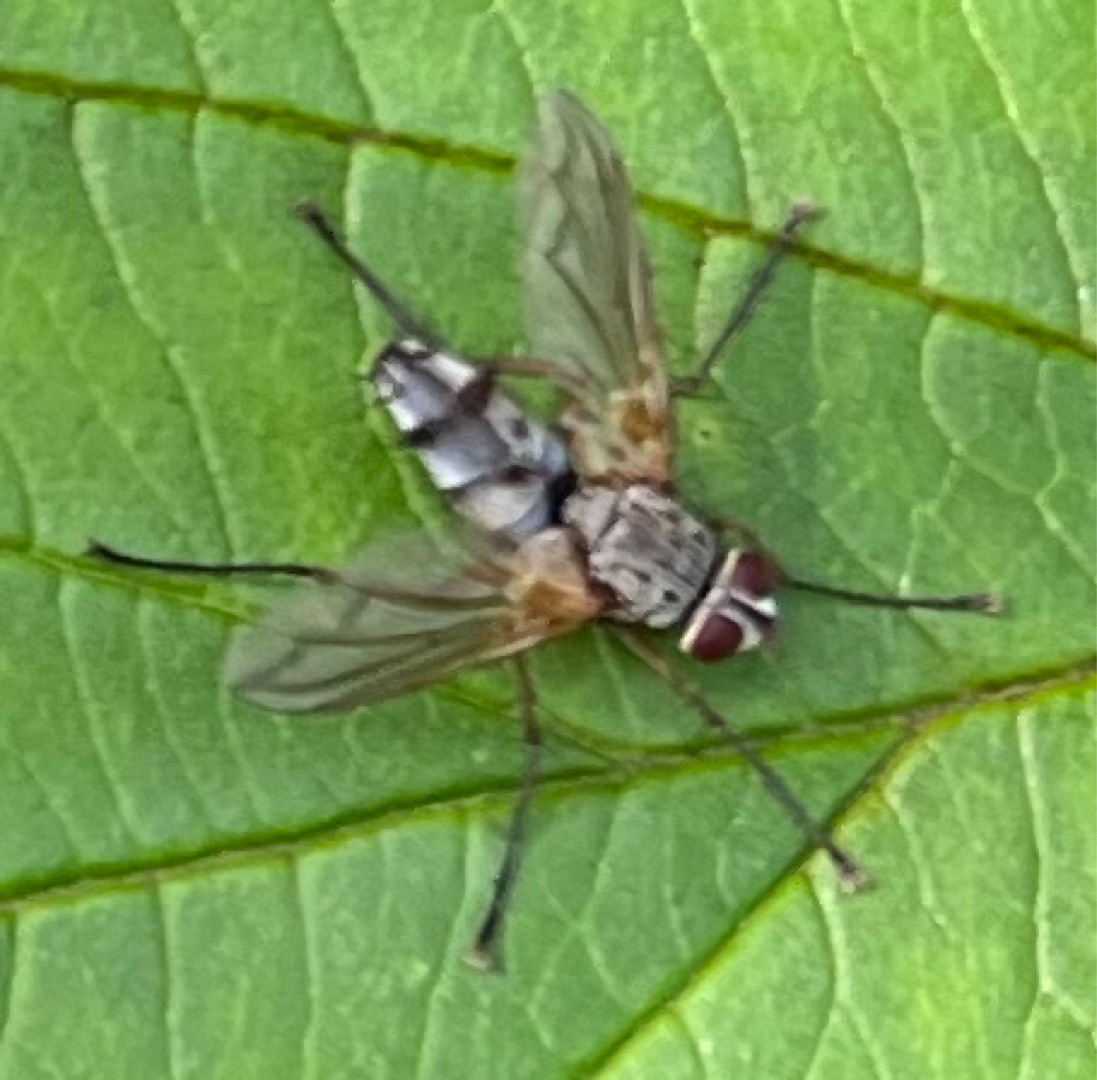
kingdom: Animalia
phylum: Arthropoda
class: Insecta
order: Diptera
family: Tachinidae
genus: Dexiosoma
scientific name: Dexiosoma caninum
